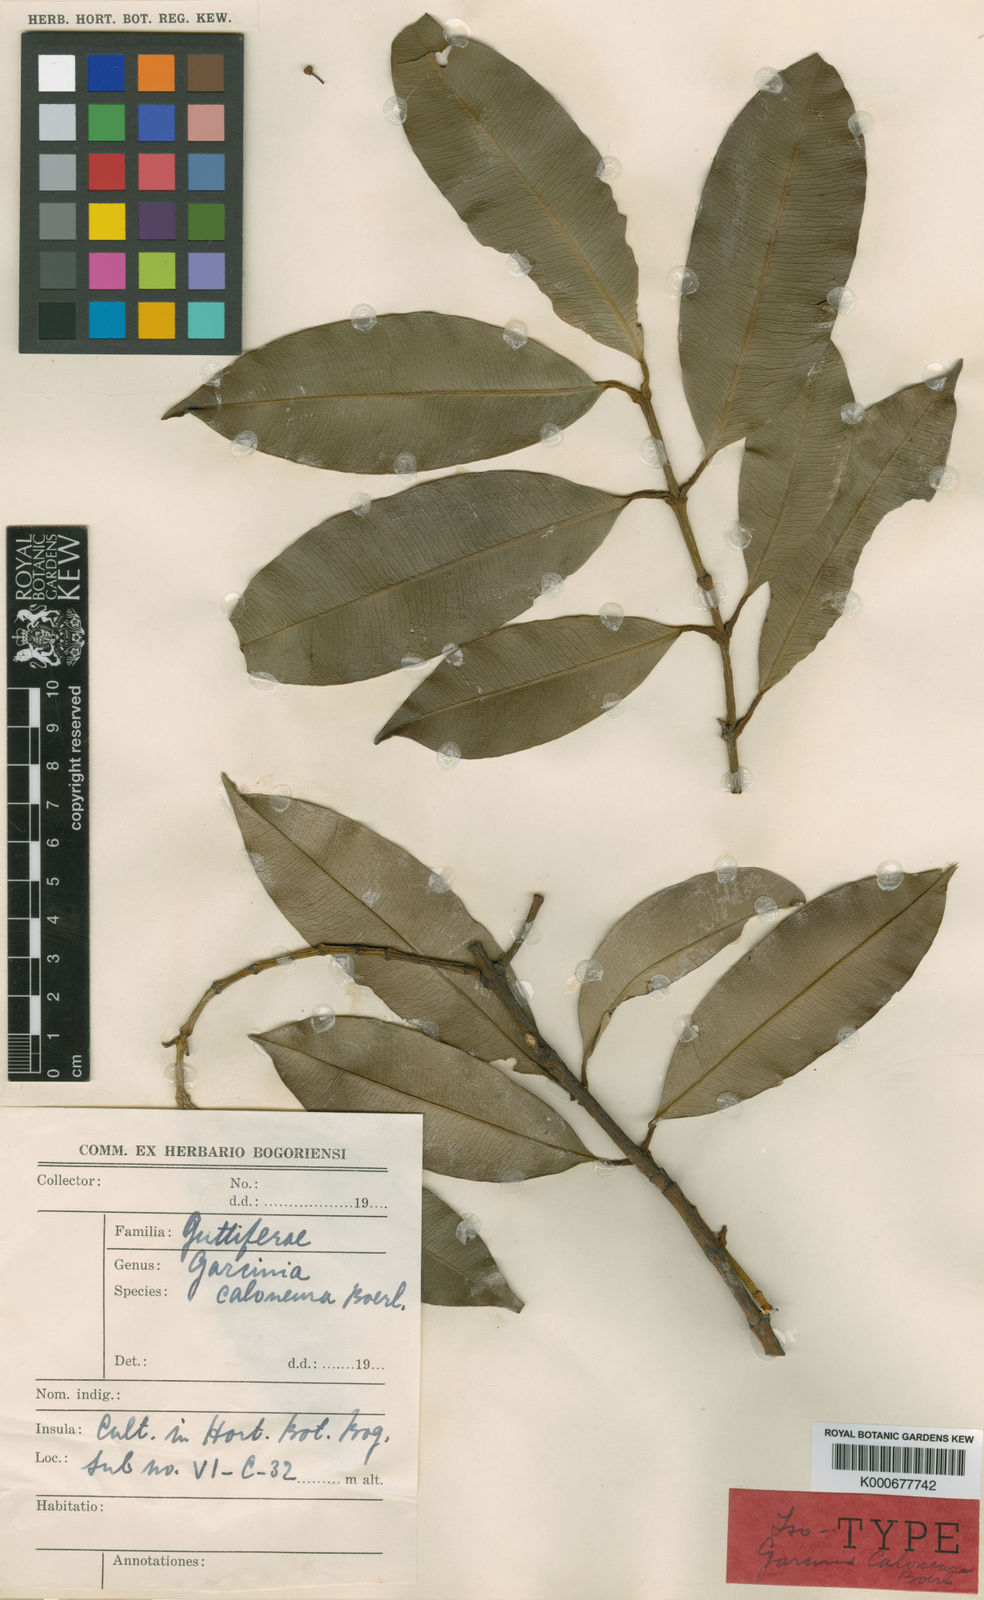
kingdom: Plantae
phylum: Tracheophyta
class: Magnoliopsida
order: Malpighiales
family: Clusiaceae
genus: Garcinia
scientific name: Garcinia caloneura
